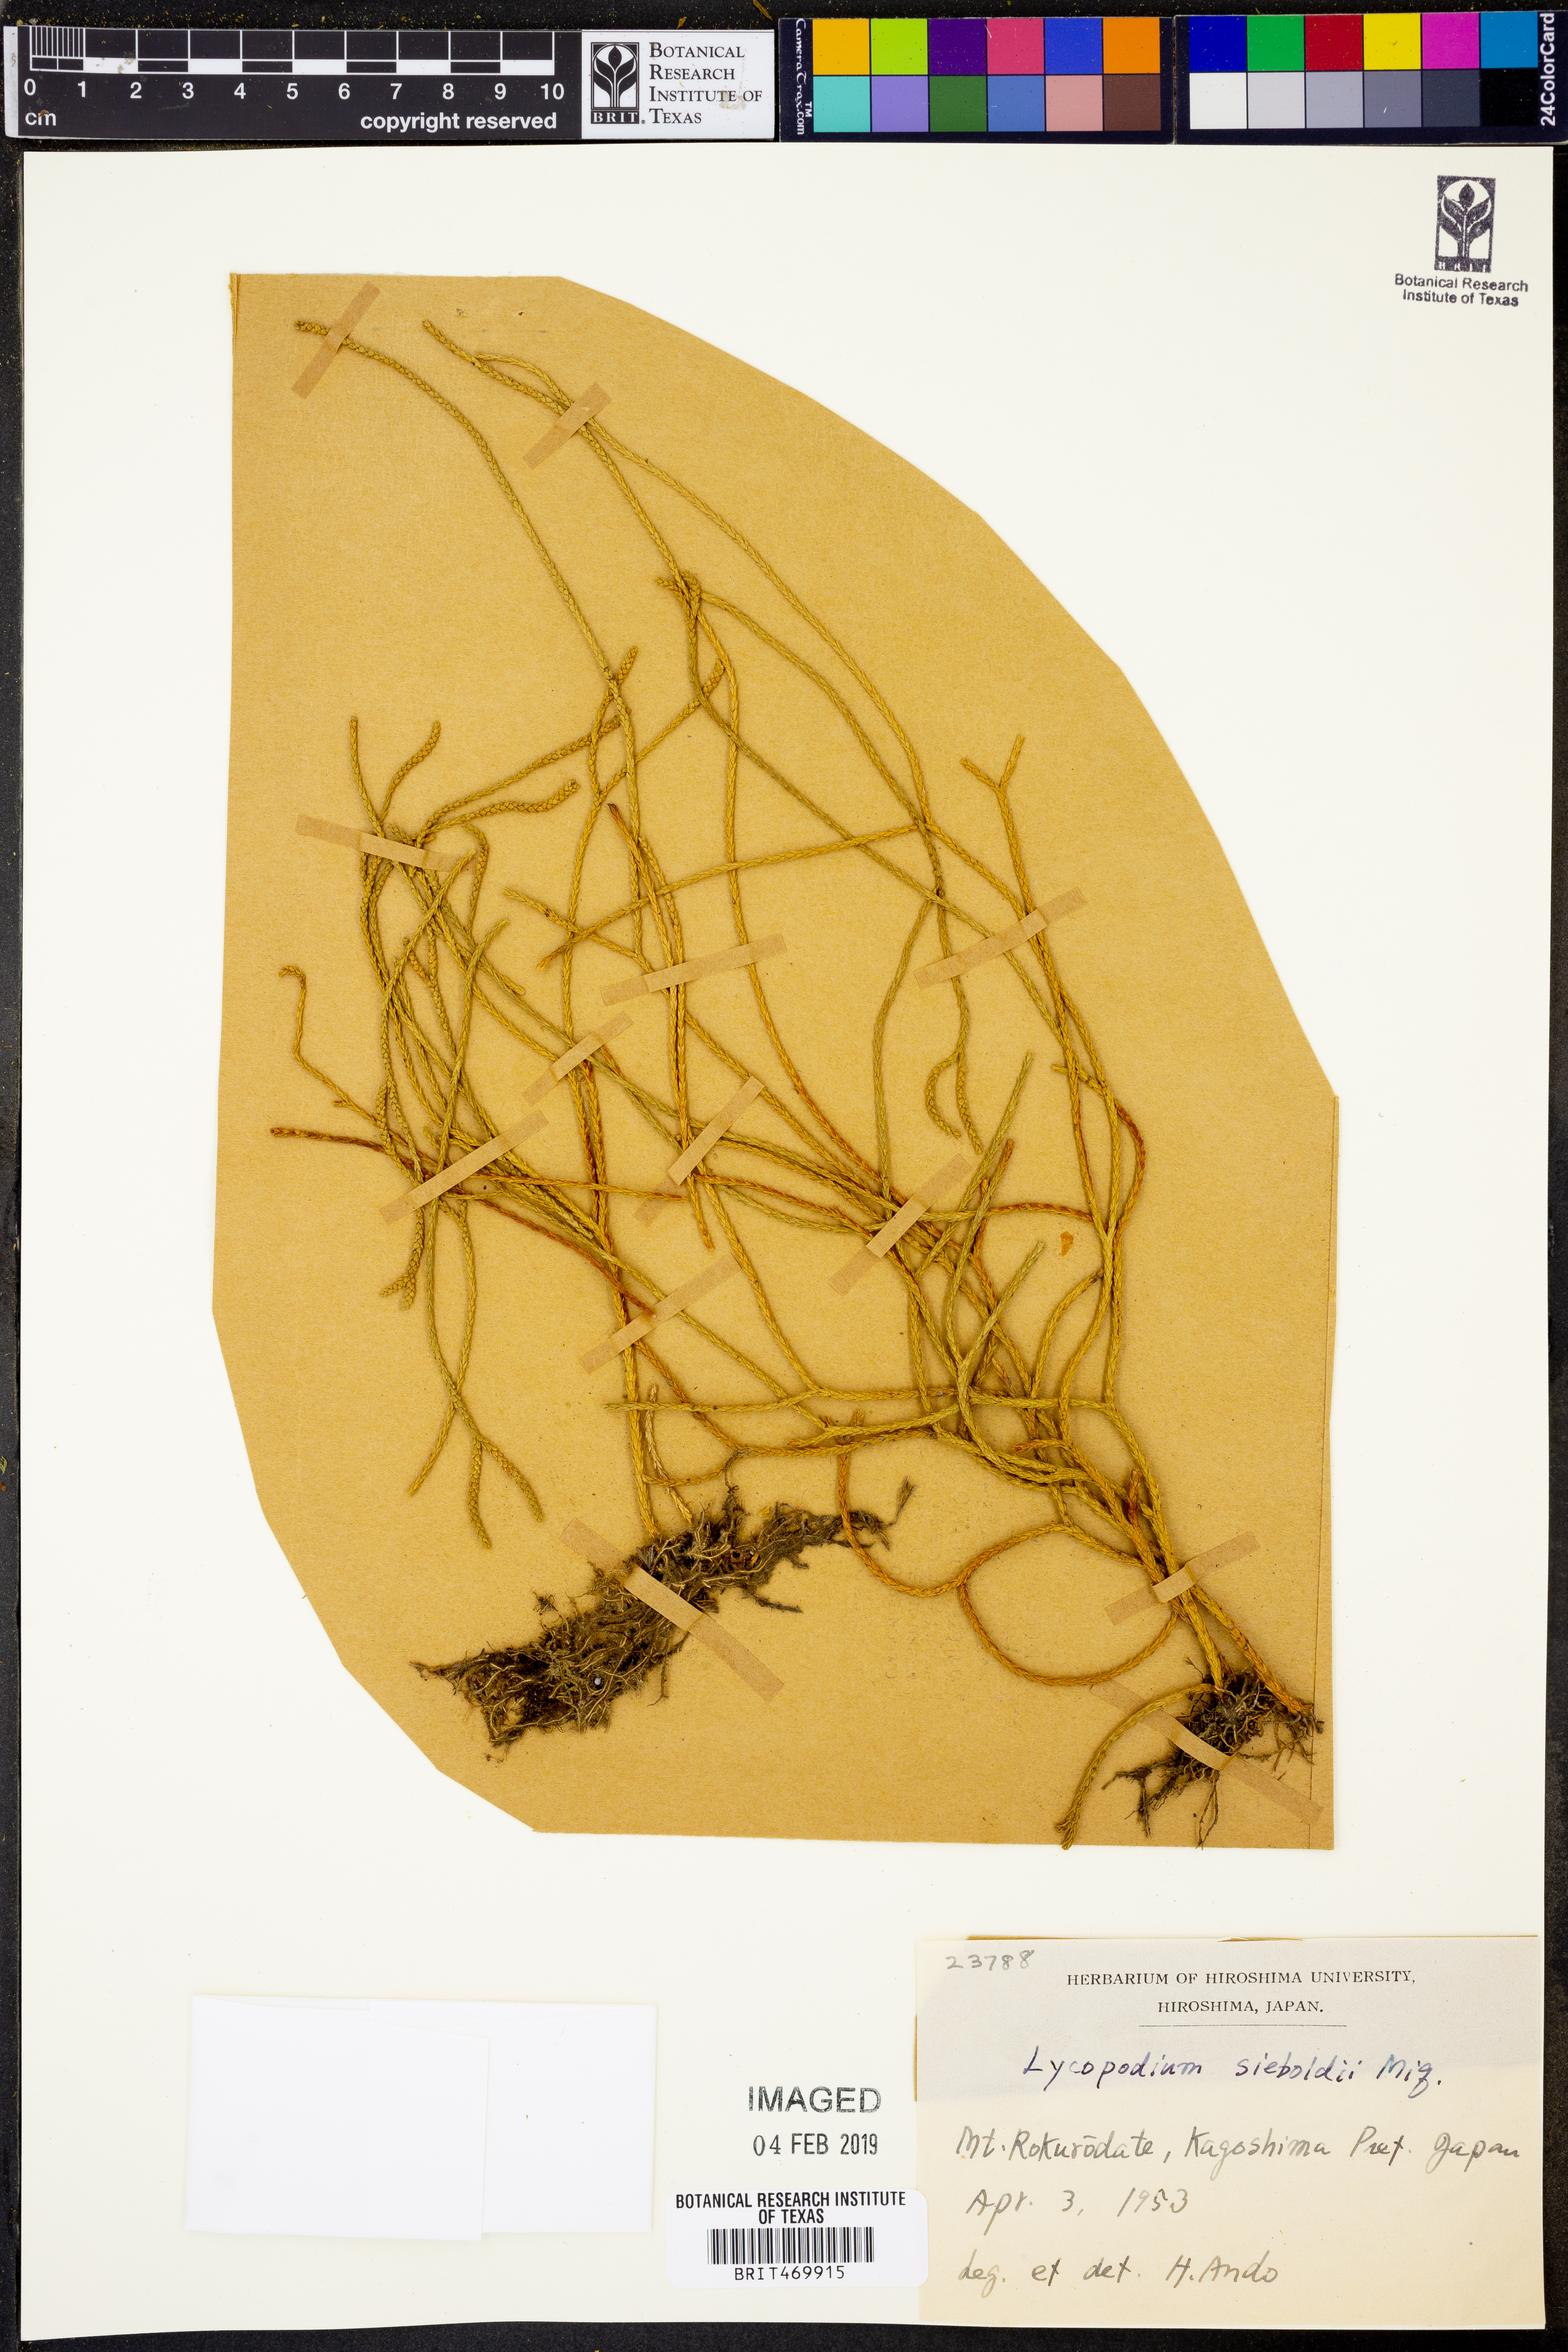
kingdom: Plantae
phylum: Tracheophyta
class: Lycopodiopsida
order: Lycopodiales
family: Lycopodiaceae
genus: Phlegmariurus
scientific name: Phlegmariurus sieboldii
